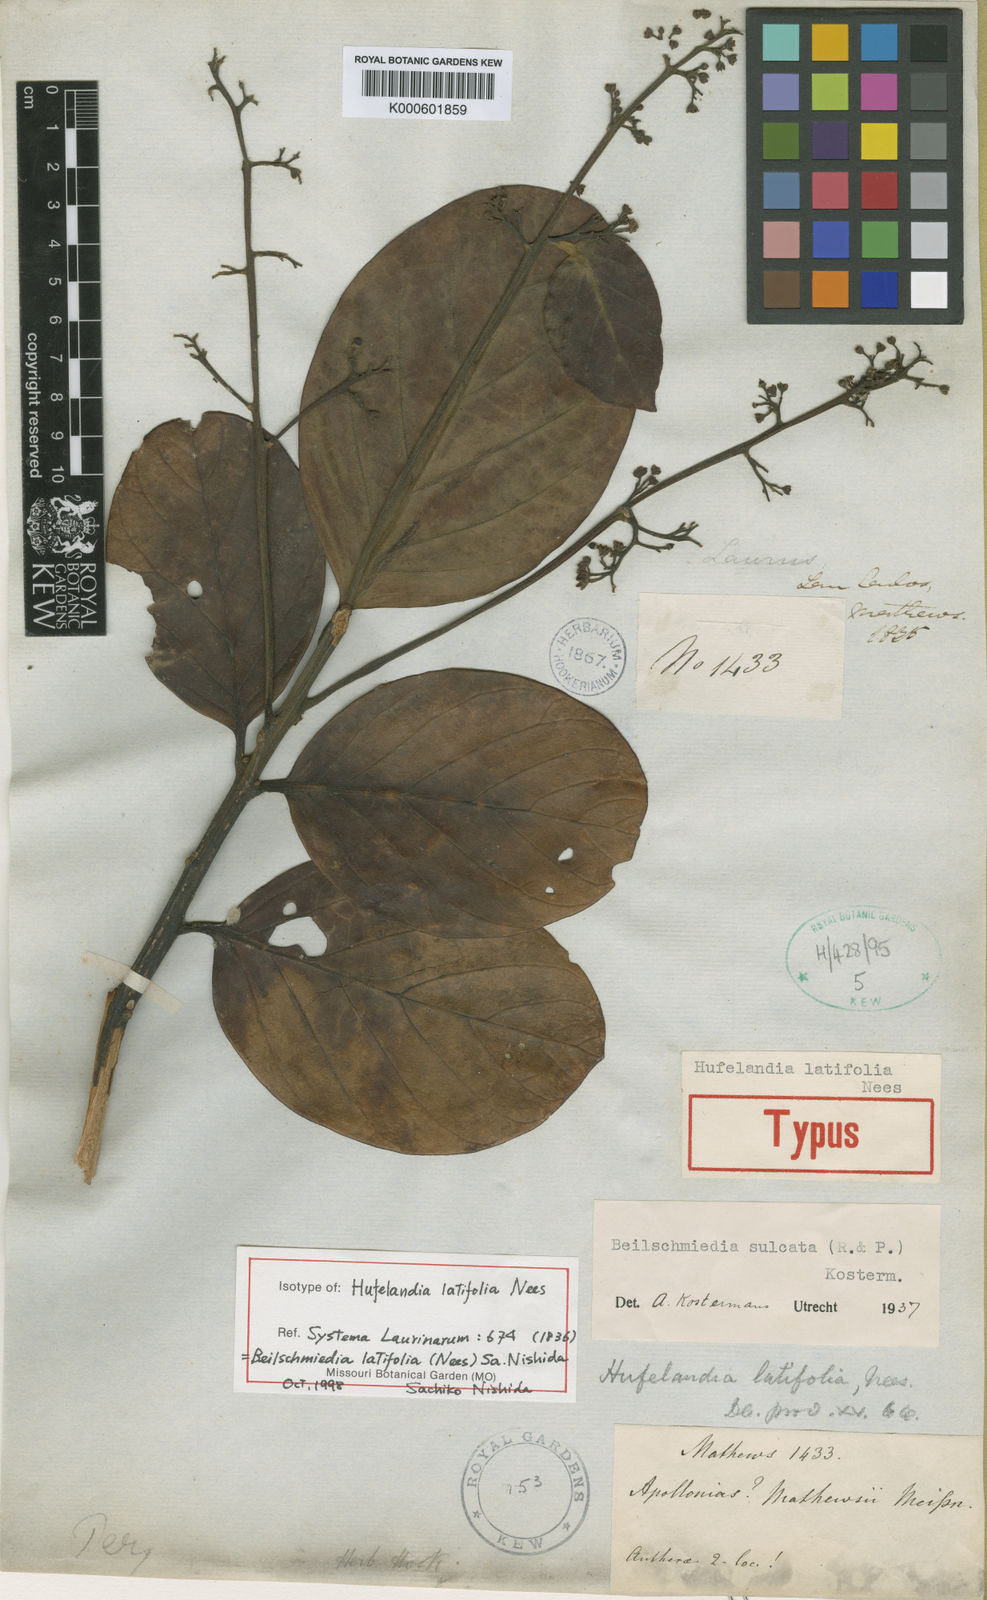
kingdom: Plantae
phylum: Tracheophyta
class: Magnoliopsida
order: Laurales
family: Lauraceae
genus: Beilschmiedia
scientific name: Beilschmiedia
